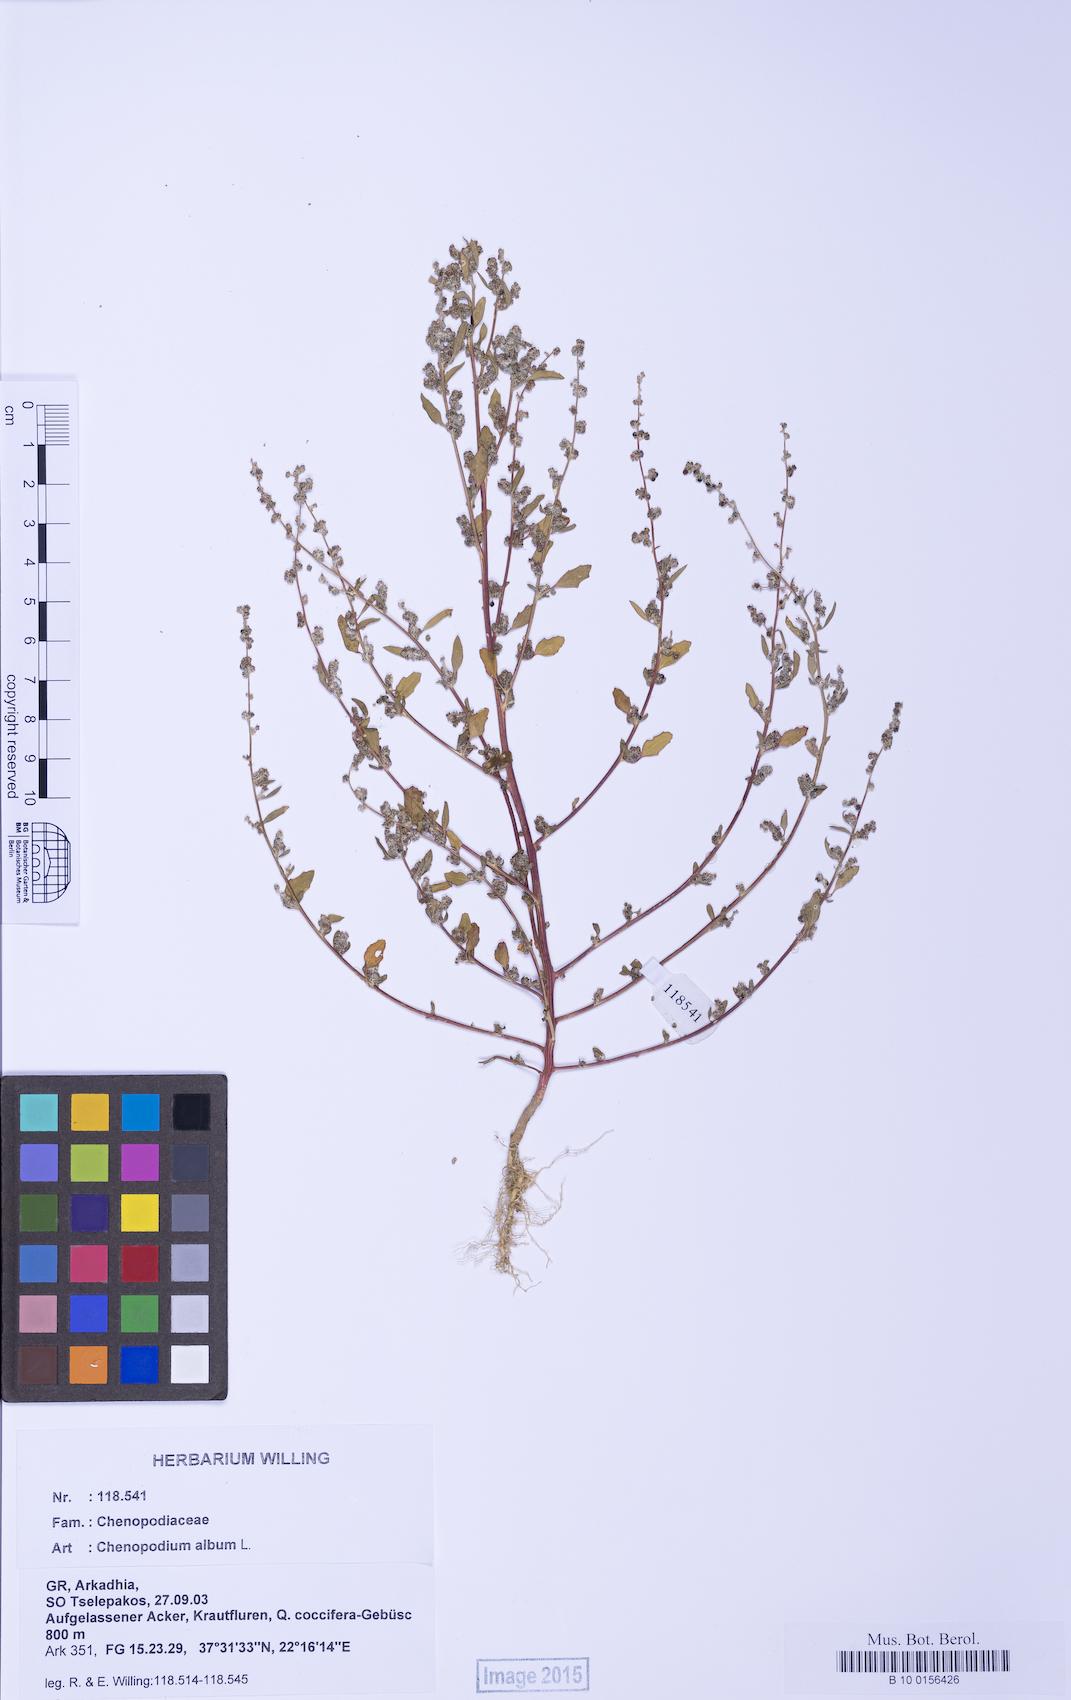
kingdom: Plantae
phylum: Tracheophyta
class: Magnoliopsida
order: Caryophyllales
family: Amaranthaceae
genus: Chenopodium
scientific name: Chenopodium album
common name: Fat-hen
